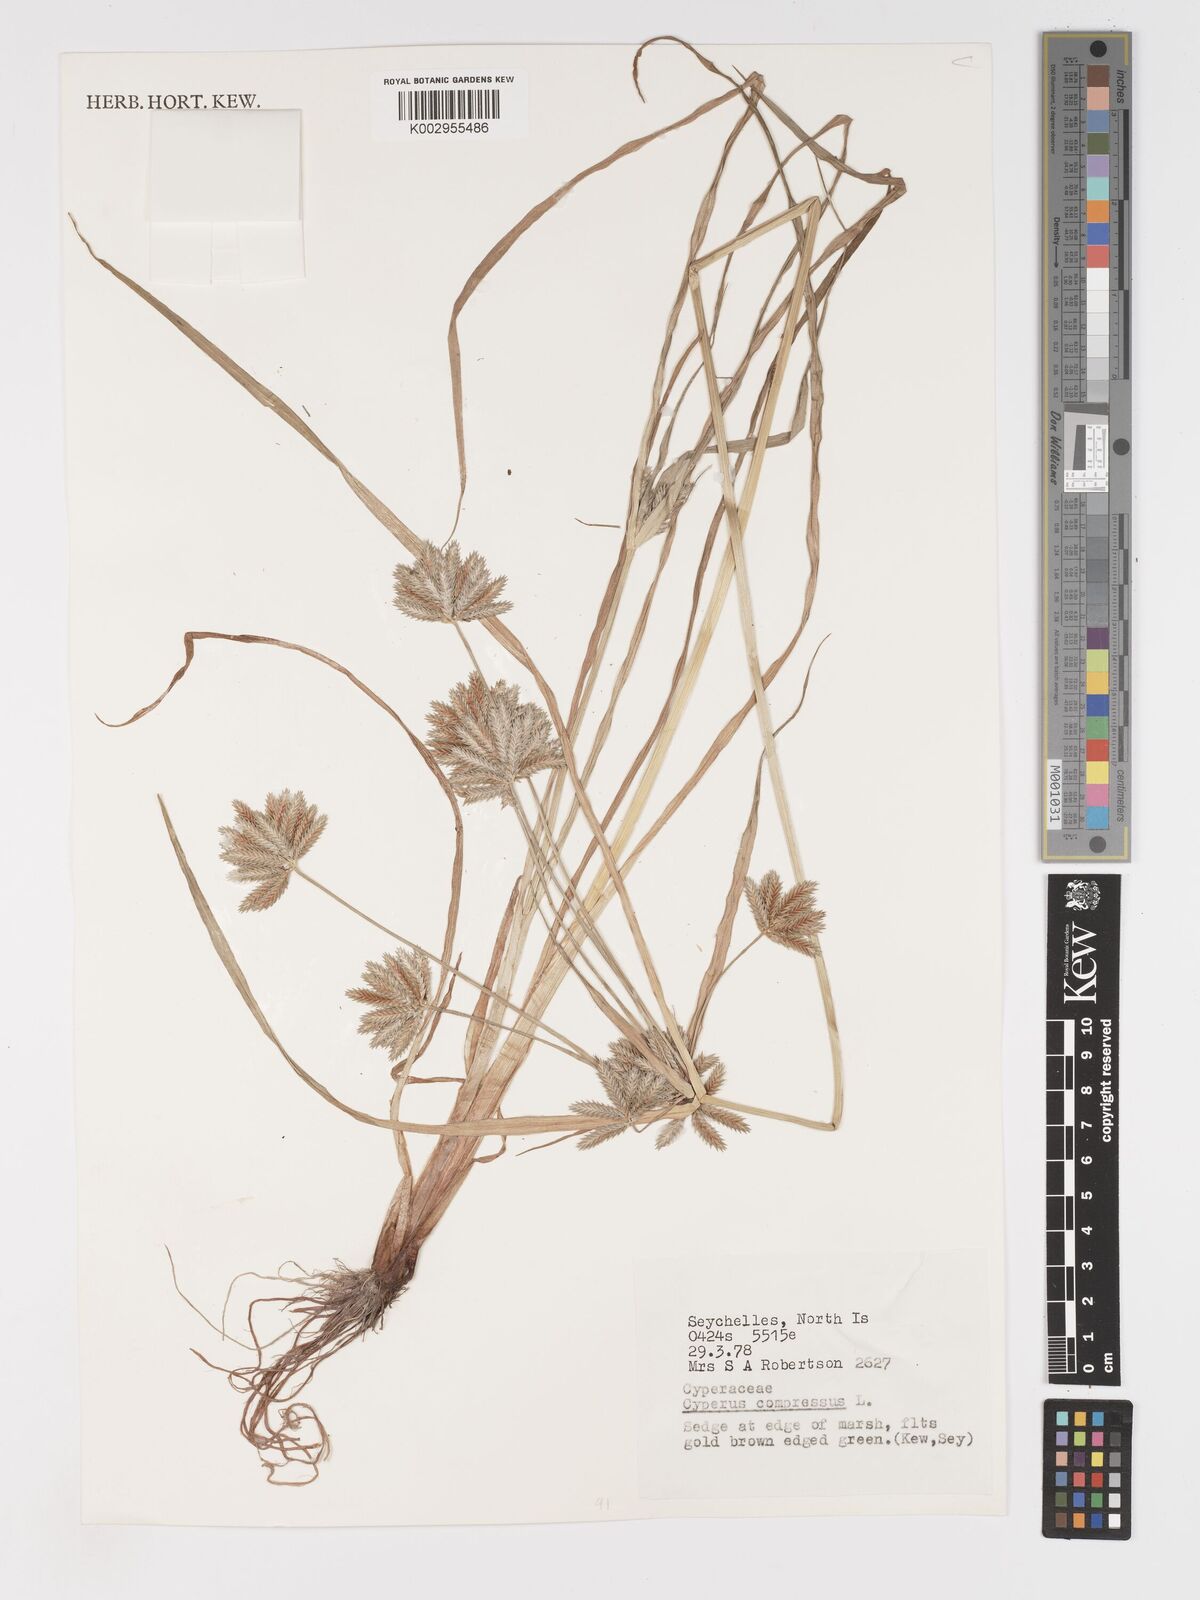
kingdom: Plantae
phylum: Tracheophyta
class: Liliopsida
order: Poales
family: Cyperaceae
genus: Cyperus
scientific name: Cyperus compressus
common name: Poorland flatsedge
